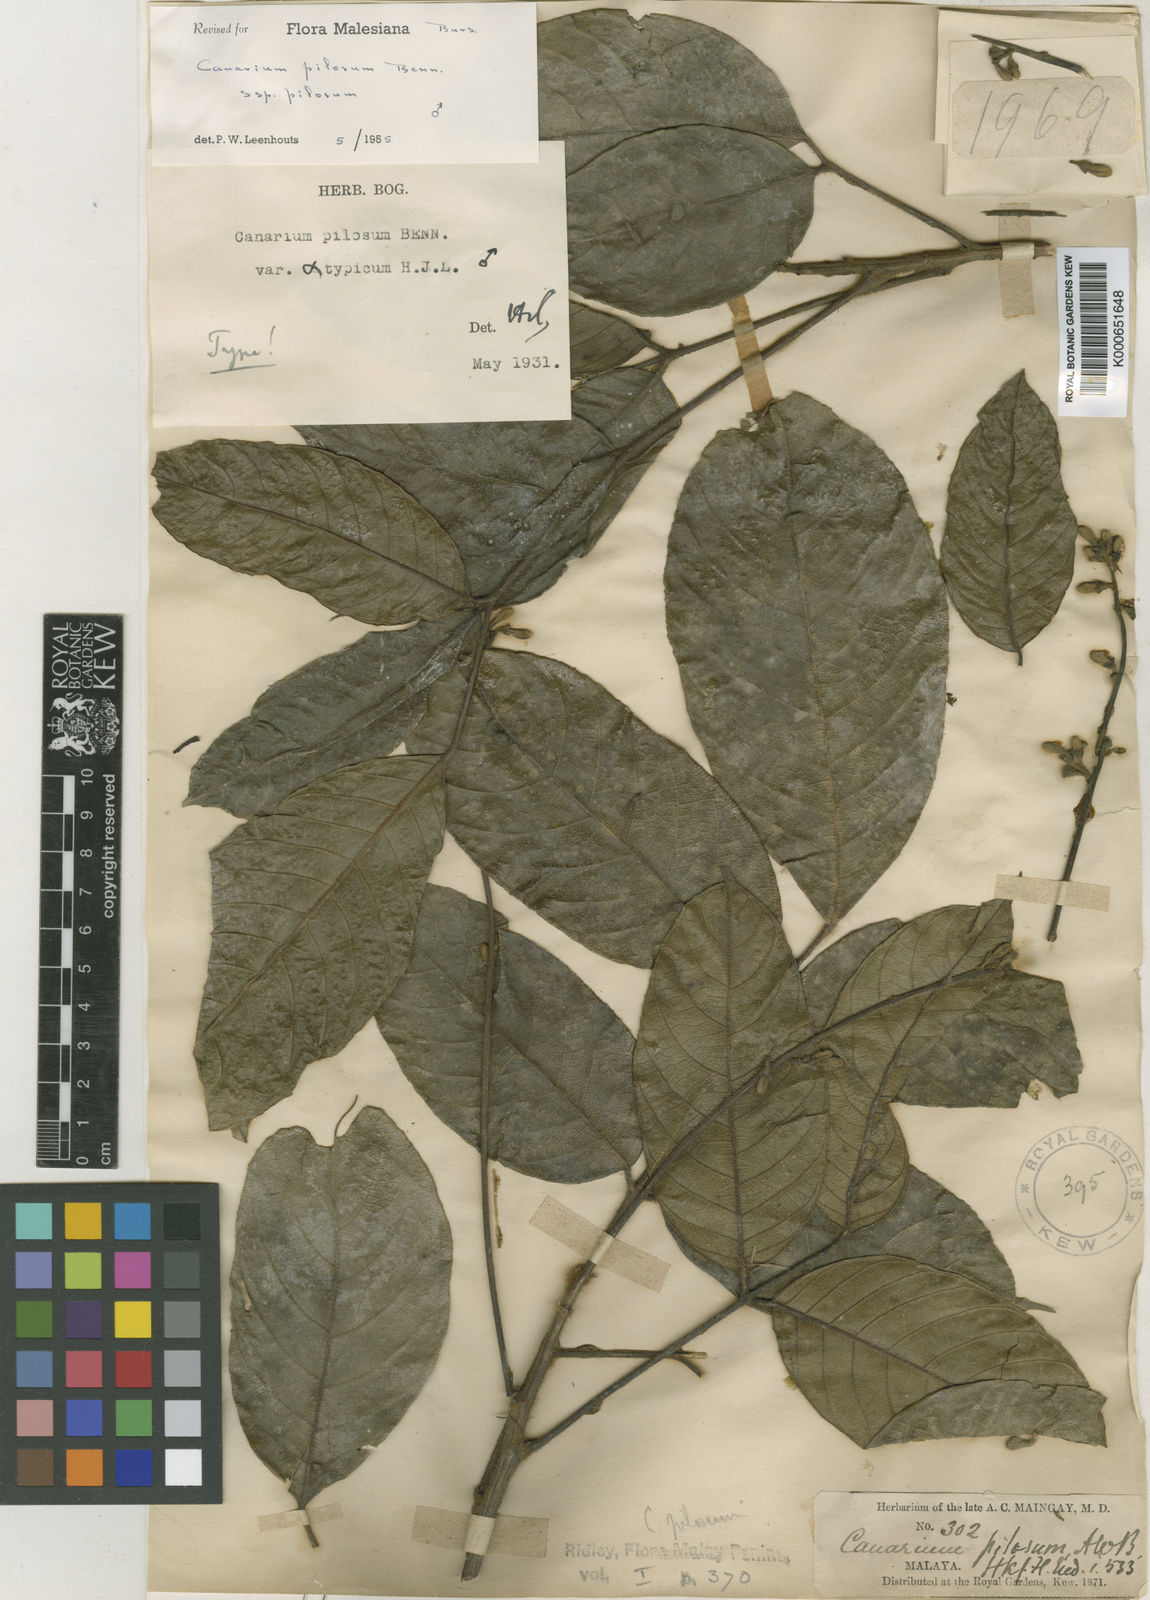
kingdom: Plantae
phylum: Tracheophyta
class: Magnoliopsida
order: Sapindales
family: Burseraceae
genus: Canarium
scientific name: Canarium pilosum
